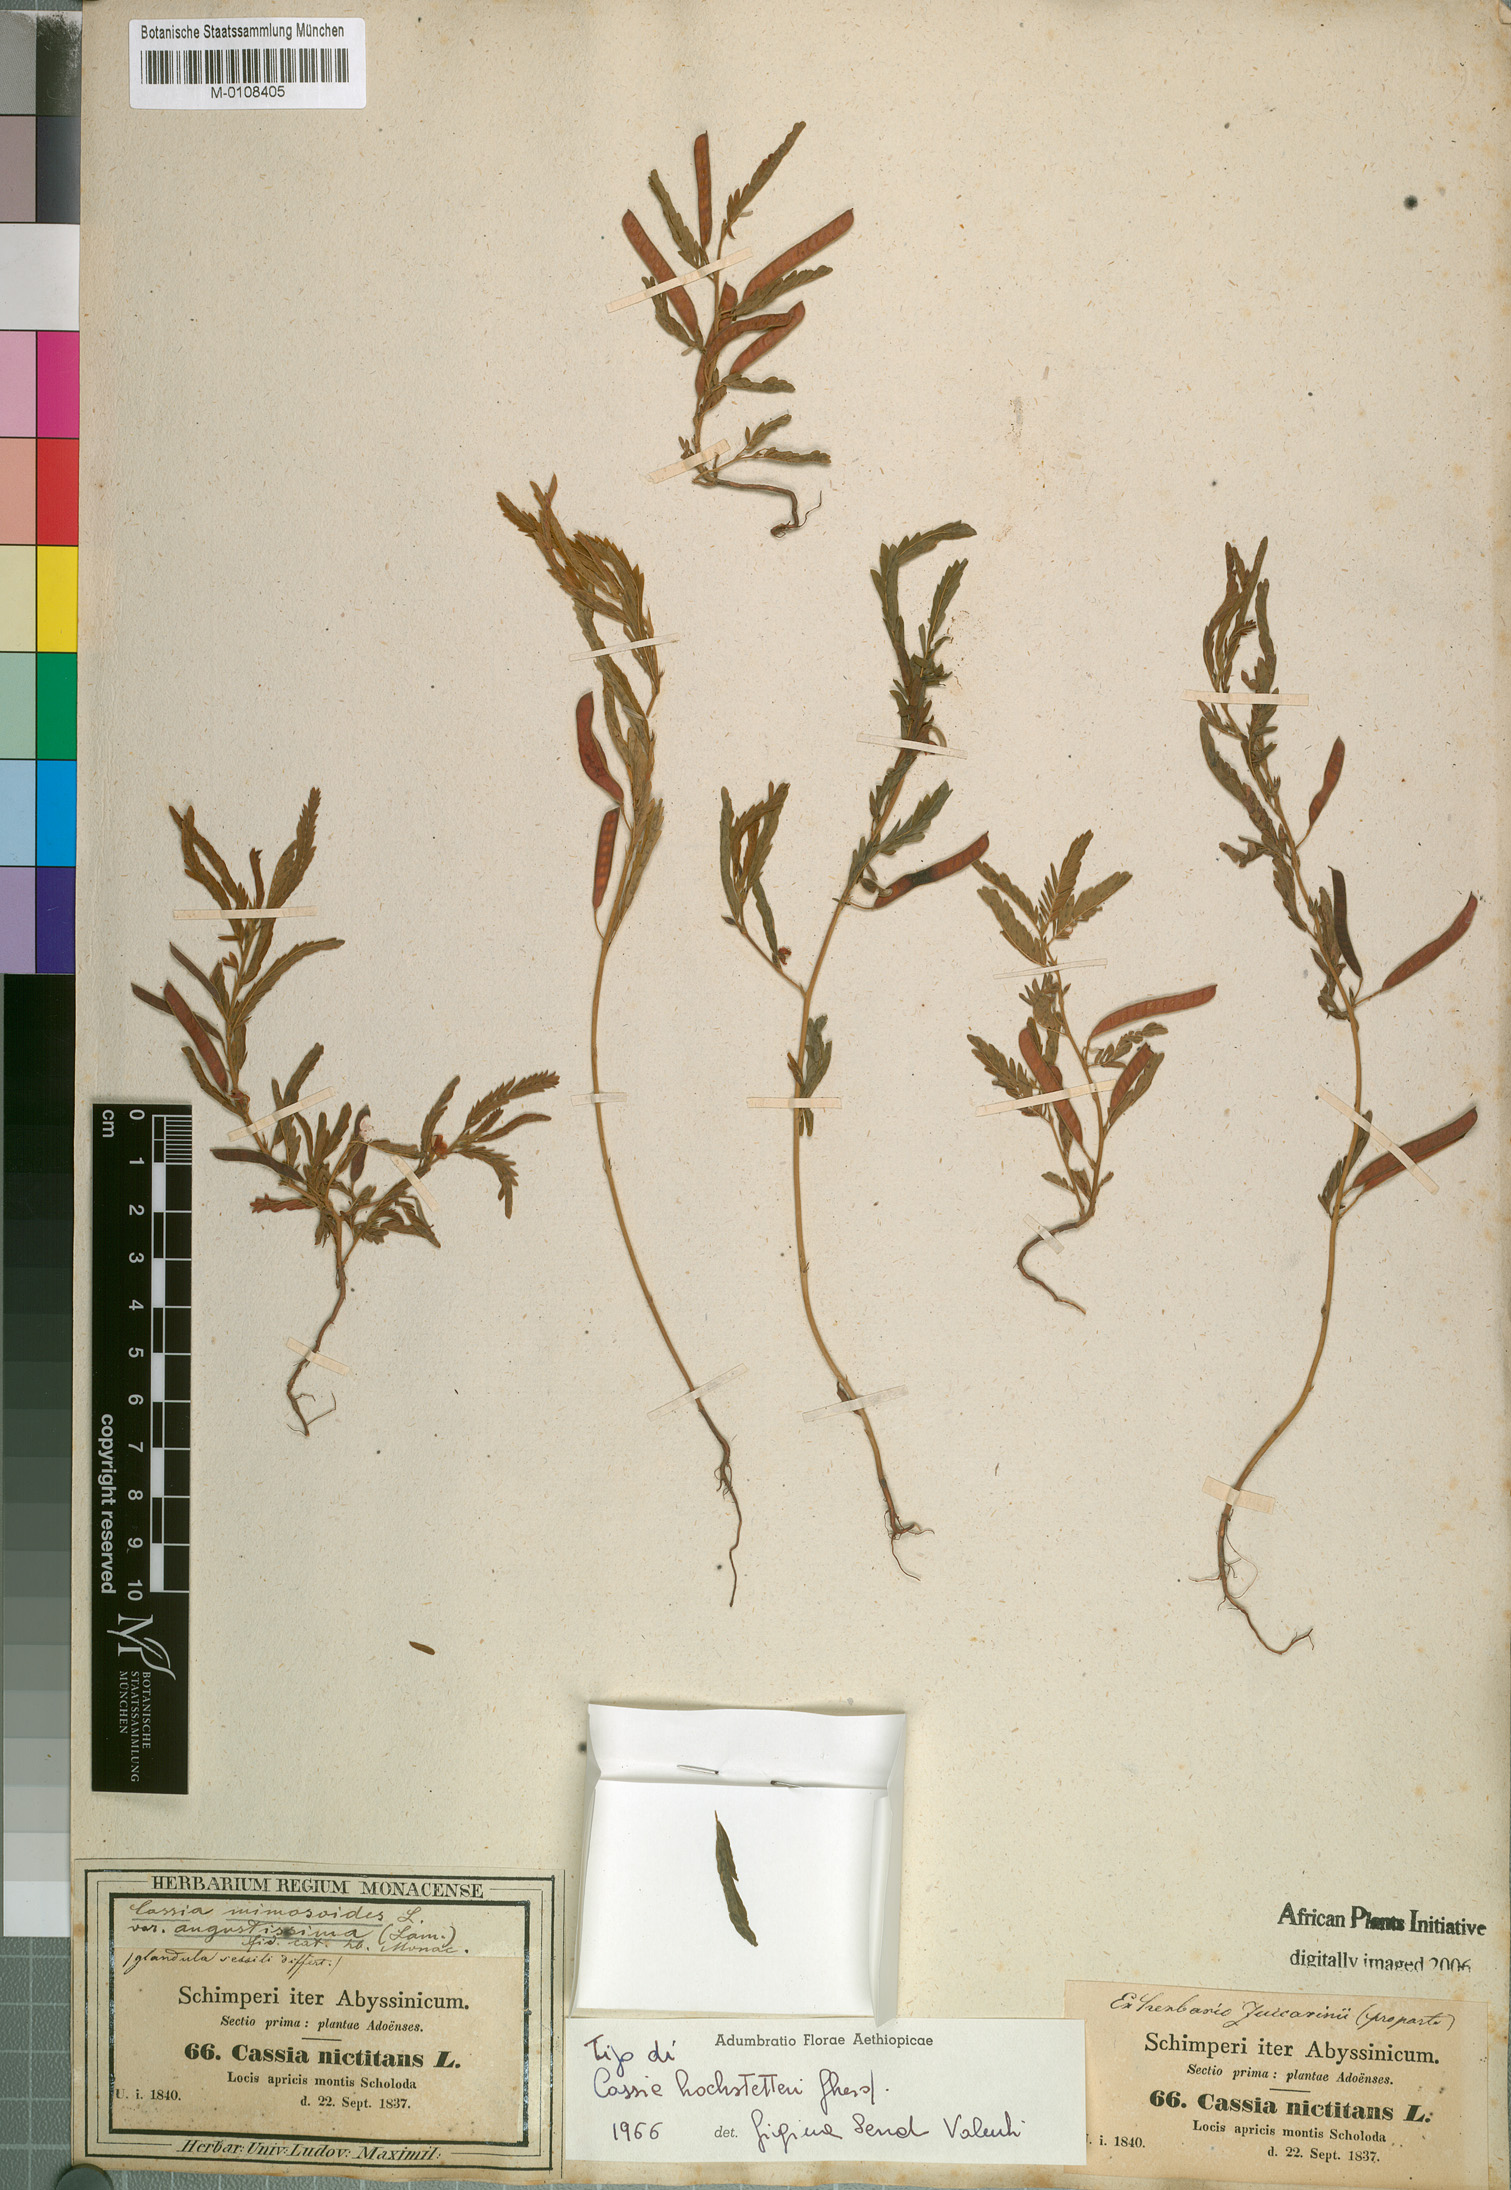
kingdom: Plantae
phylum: Tracheophyta
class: Magnoliopsida
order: Fabales
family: Fabaceae
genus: Chamaecrista
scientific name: Chamaecrista
